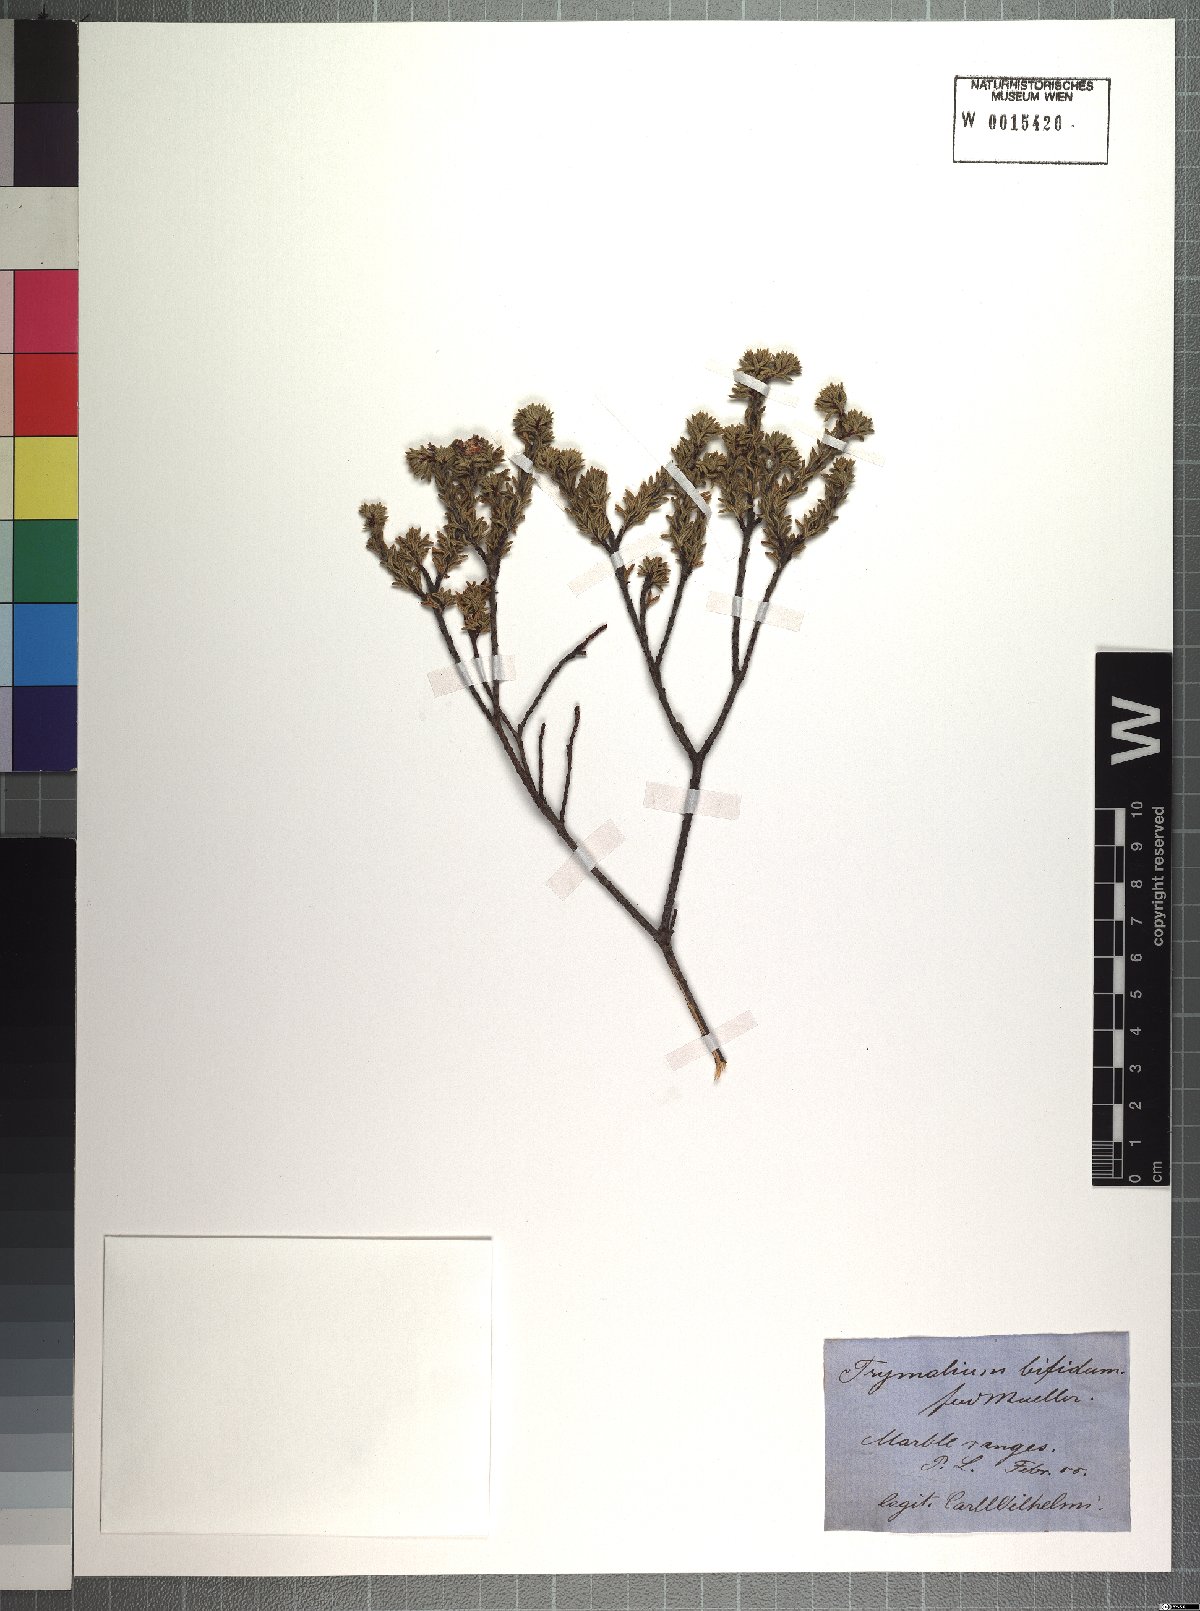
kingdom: Plantae
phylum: Tracheophyta
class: Magnoliopsida
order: Rosales
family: Rhamnaceae
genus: Spyridium
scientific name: Spyridium bifidum
